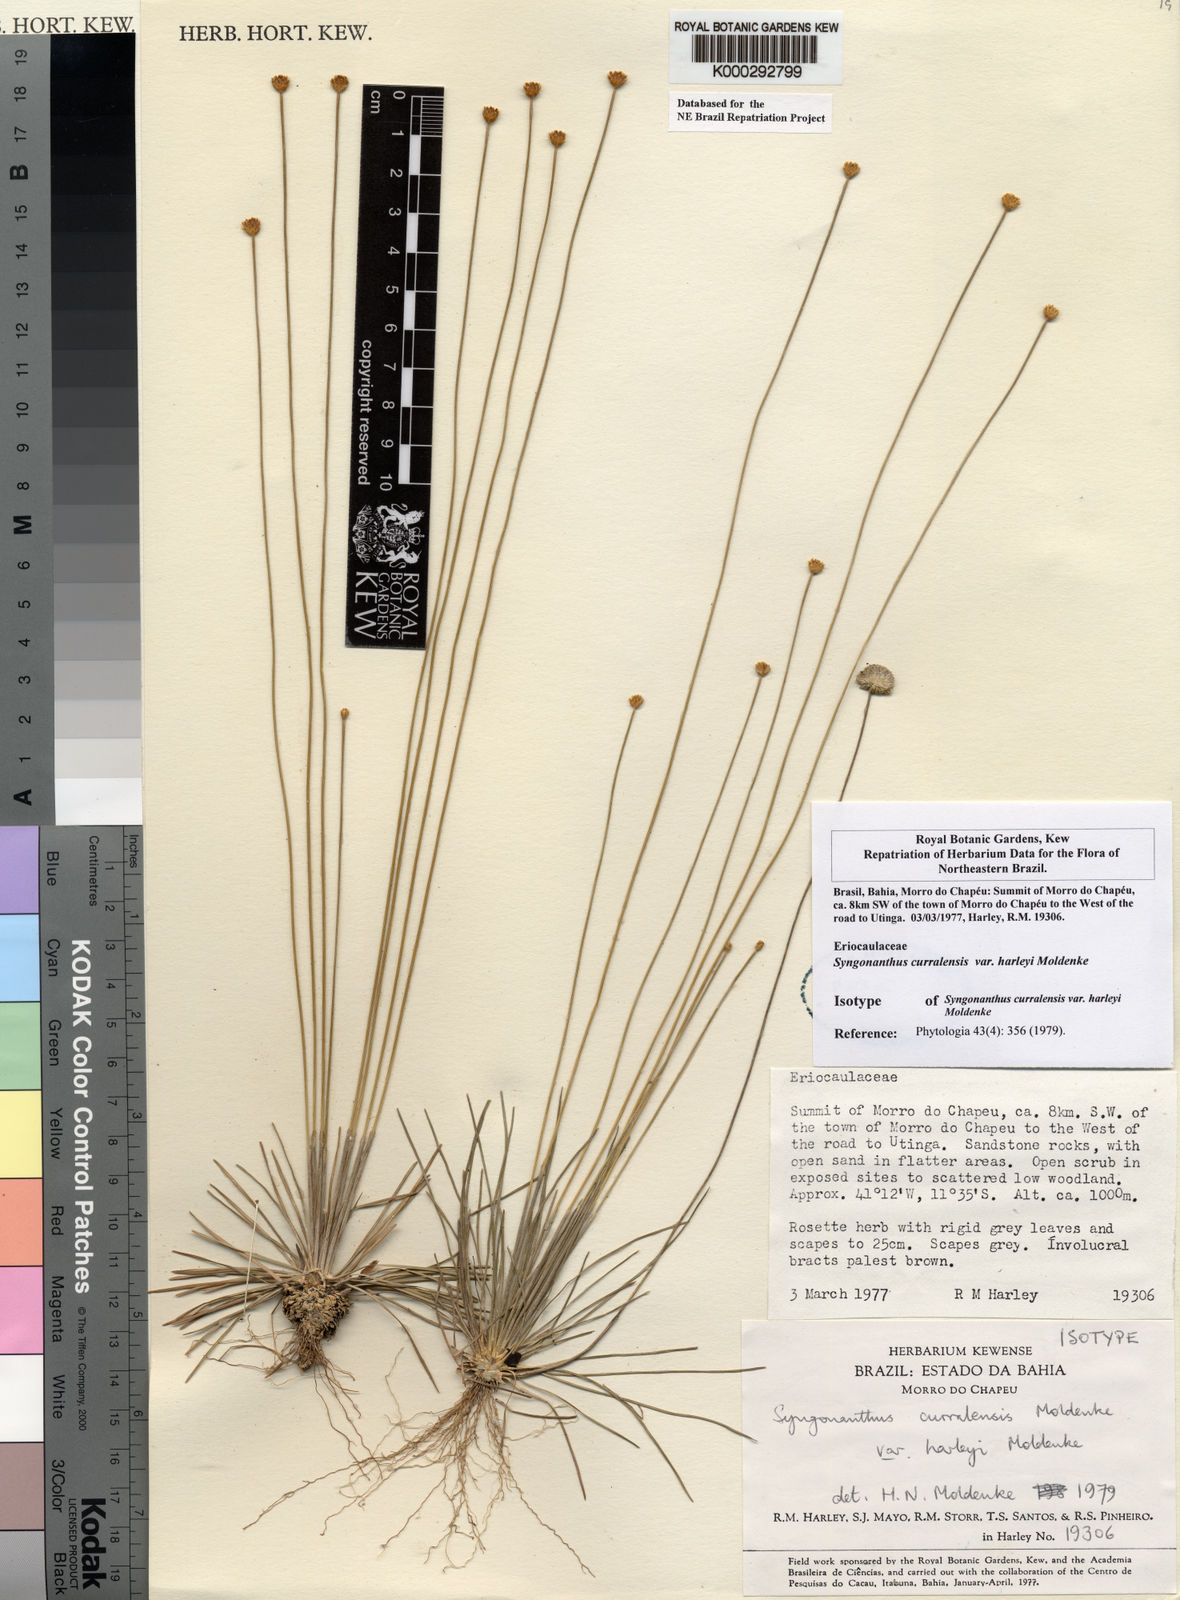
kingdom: Plantae
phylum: Tracheophyta
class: Liliopsida
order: Poales
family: Eriocaulaceae
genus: Comanthera
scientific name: Comanthera curralensis
